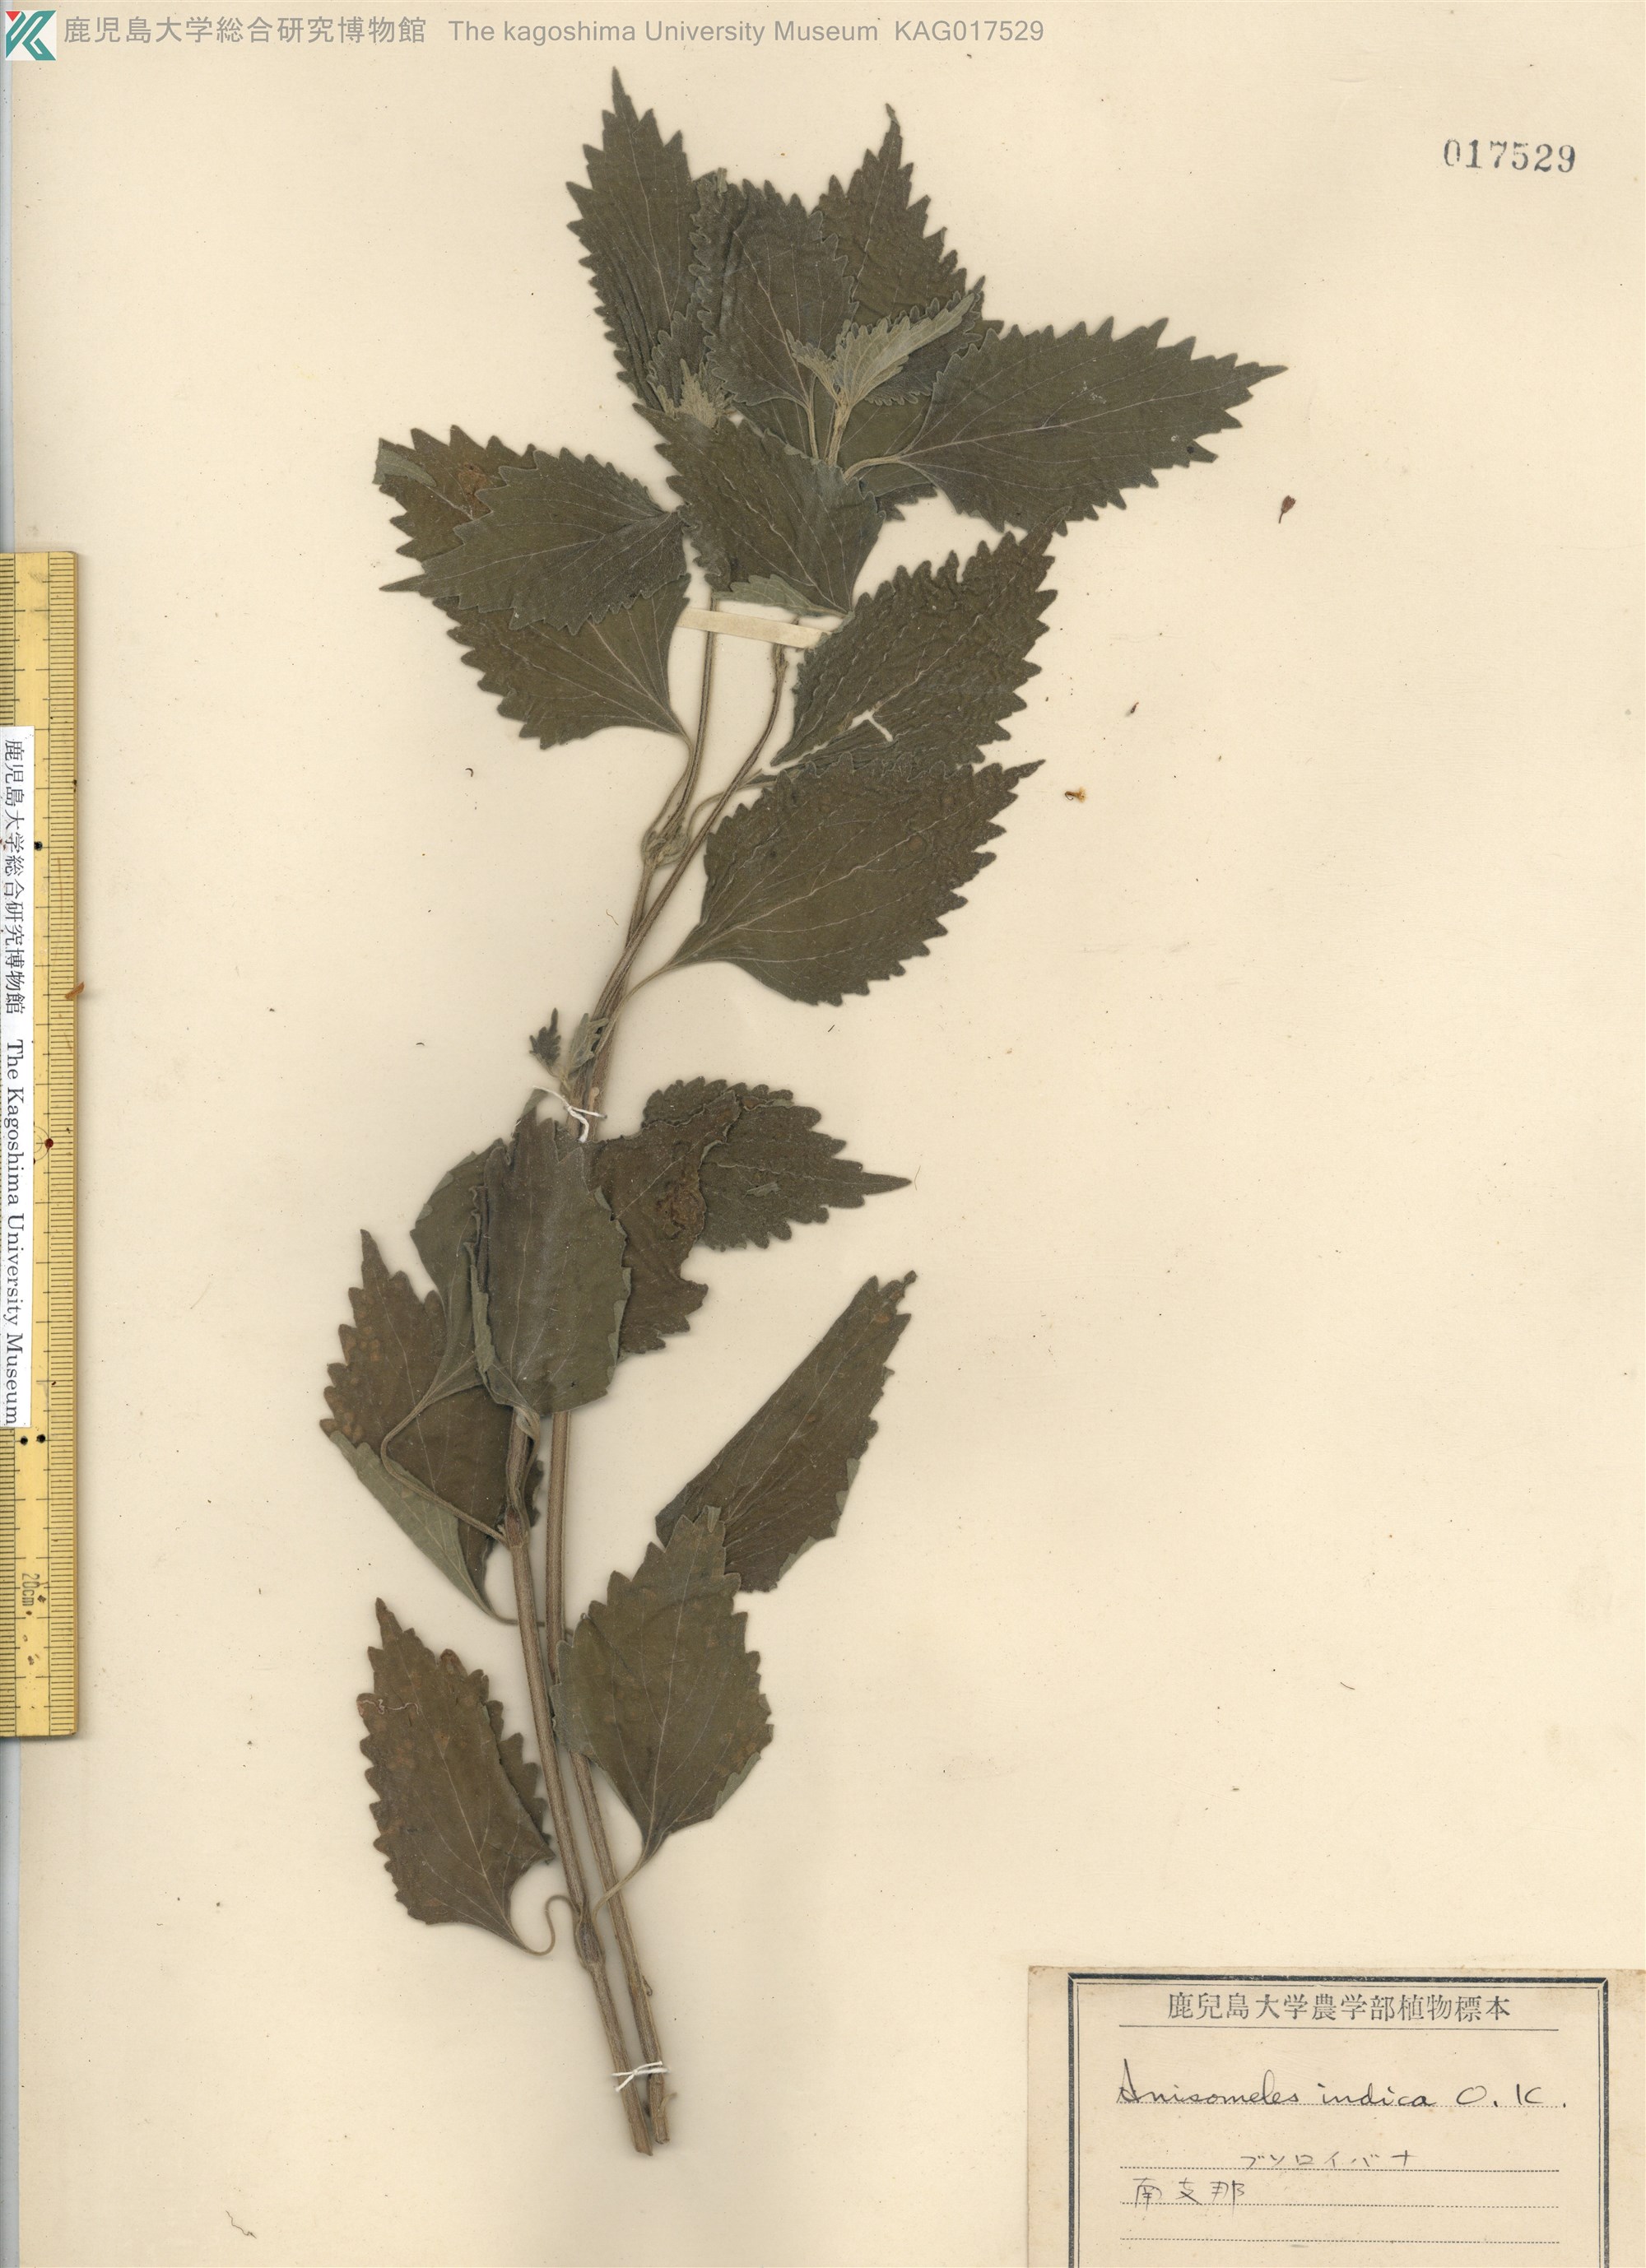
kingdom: Plantae
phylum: Tracheophyta
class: Magnoliopsida
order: Lamiales
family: Lamiaceae
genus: Anisomeles
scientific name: Anisomeles indica
